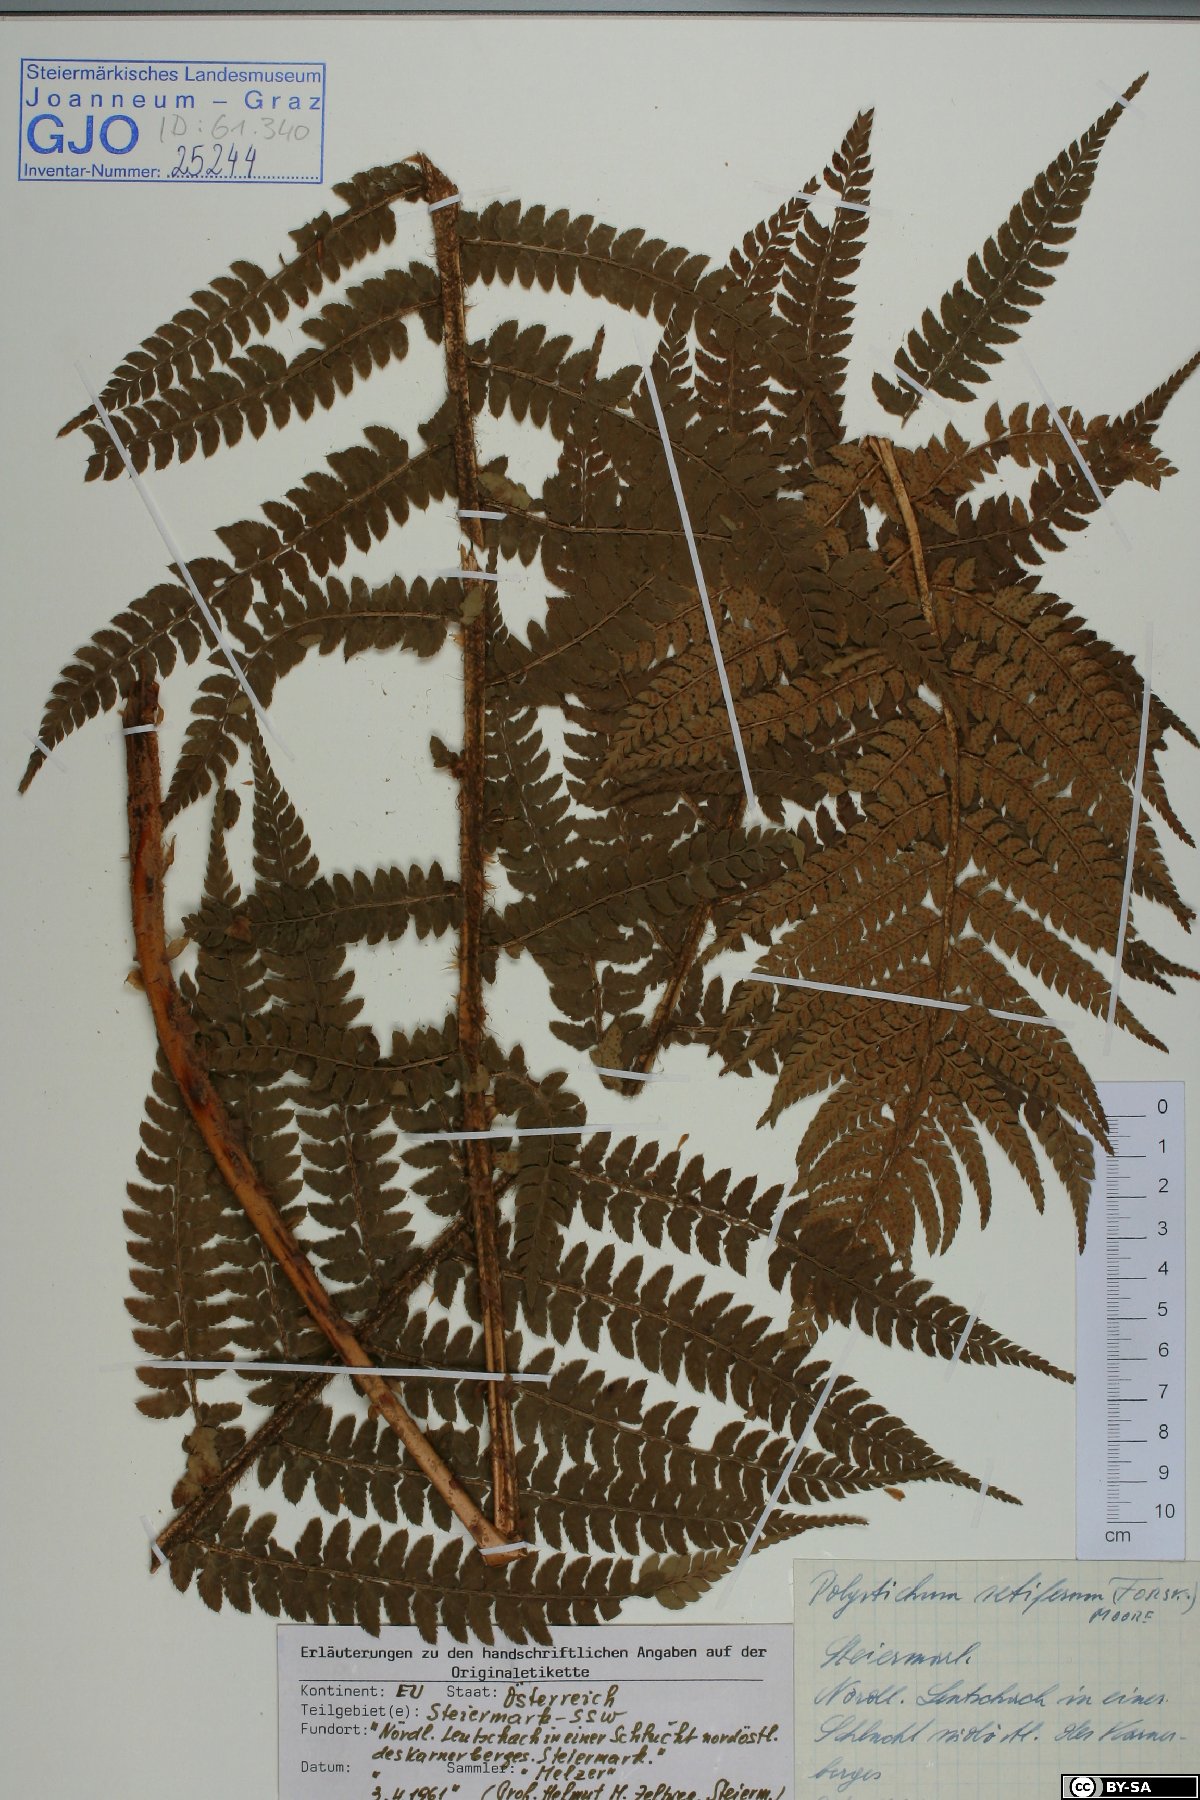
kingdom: Plantae
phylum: Tracheophyta
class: Polypodiopsida
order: Polypodiales
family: Dryopteridaceae
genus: Polystichum
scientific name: Polystichum setiferum
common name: Soft shield-fern
